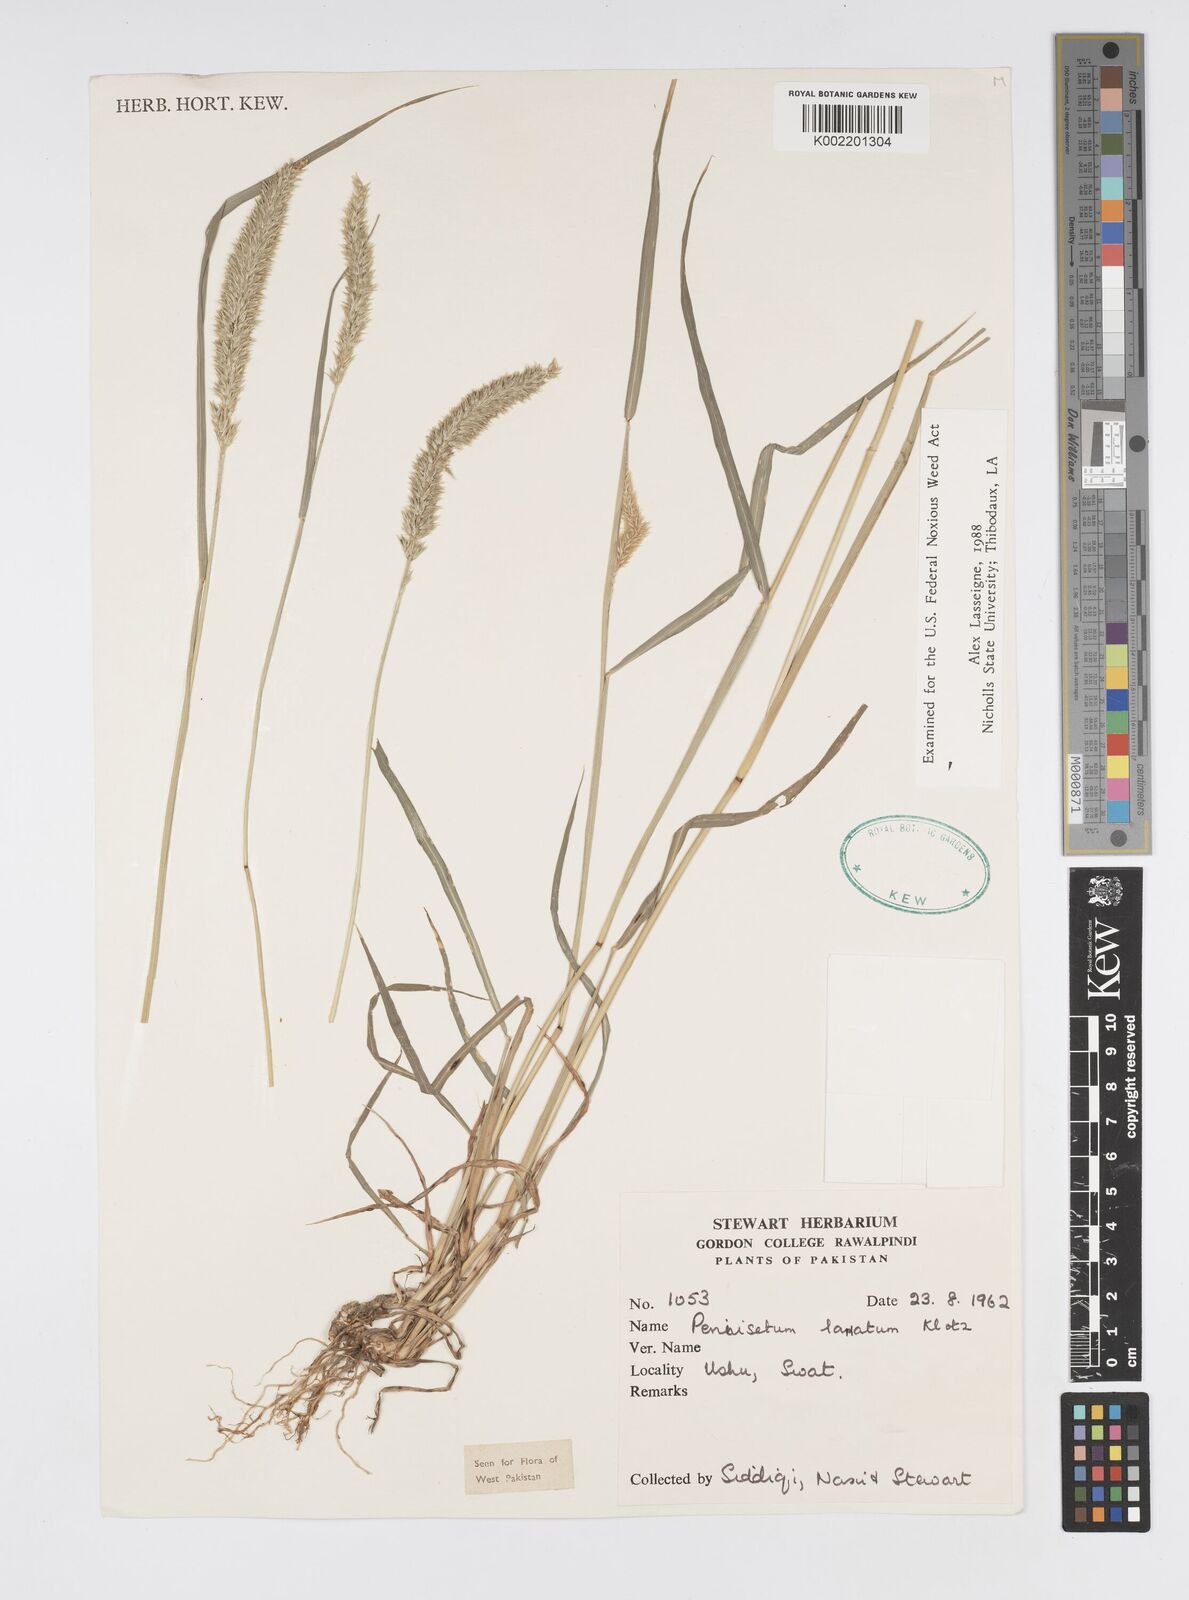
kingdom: Plantae
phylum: Tracheophyta
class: Liliopsida
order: Poales
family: Poaceae
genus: Cenchrus
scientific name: Cenchrus lanatus
